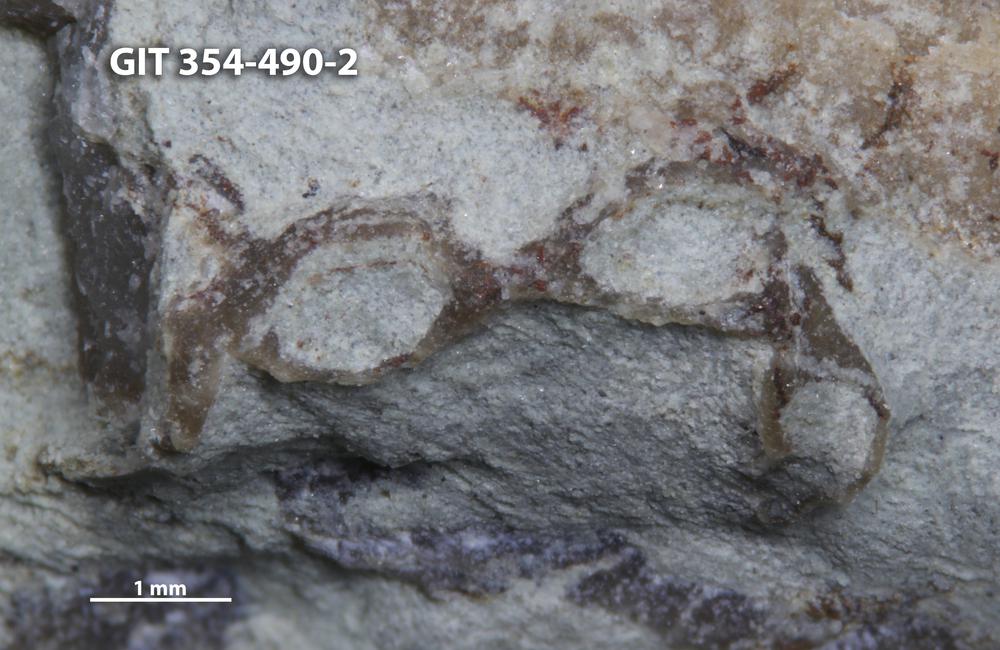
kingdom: Animalia
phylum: Cnidaria
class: Anthozoa
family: Halysitidae
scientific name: Halysitidae
